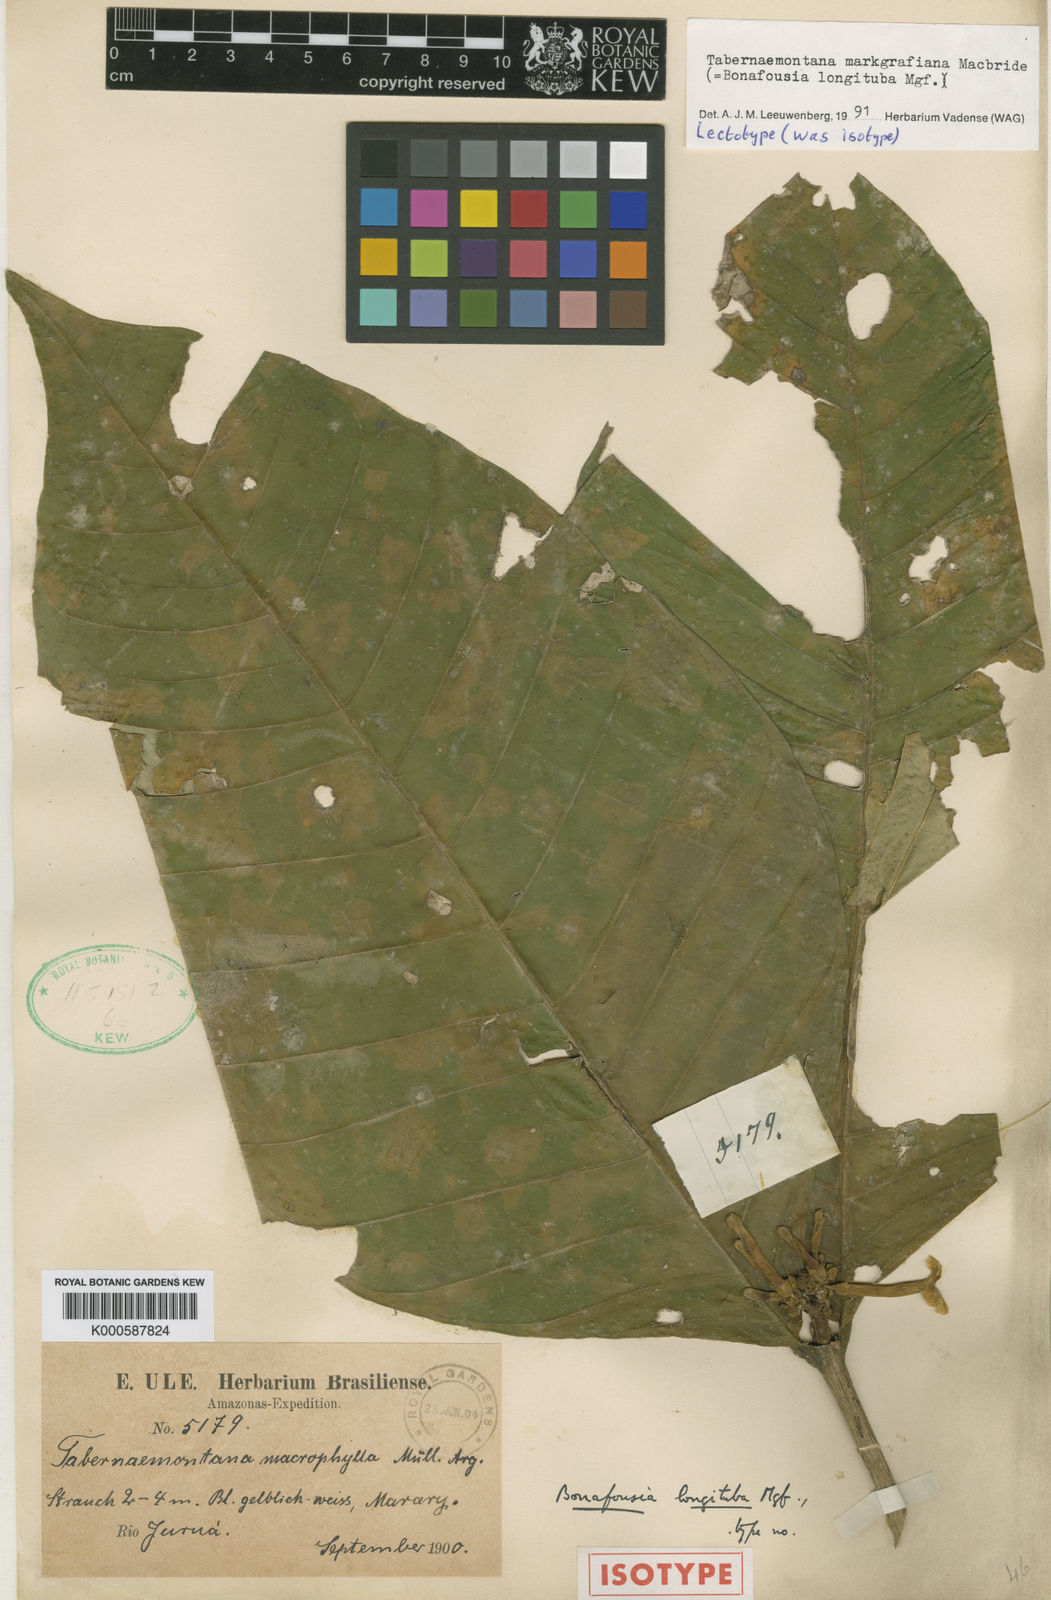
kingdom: Plantae
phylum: Tracheophyta
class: Magnoliopsida
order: Gentianales
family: Apocynaceae
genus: Tabernaemontana
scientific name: Tabernaemontana
